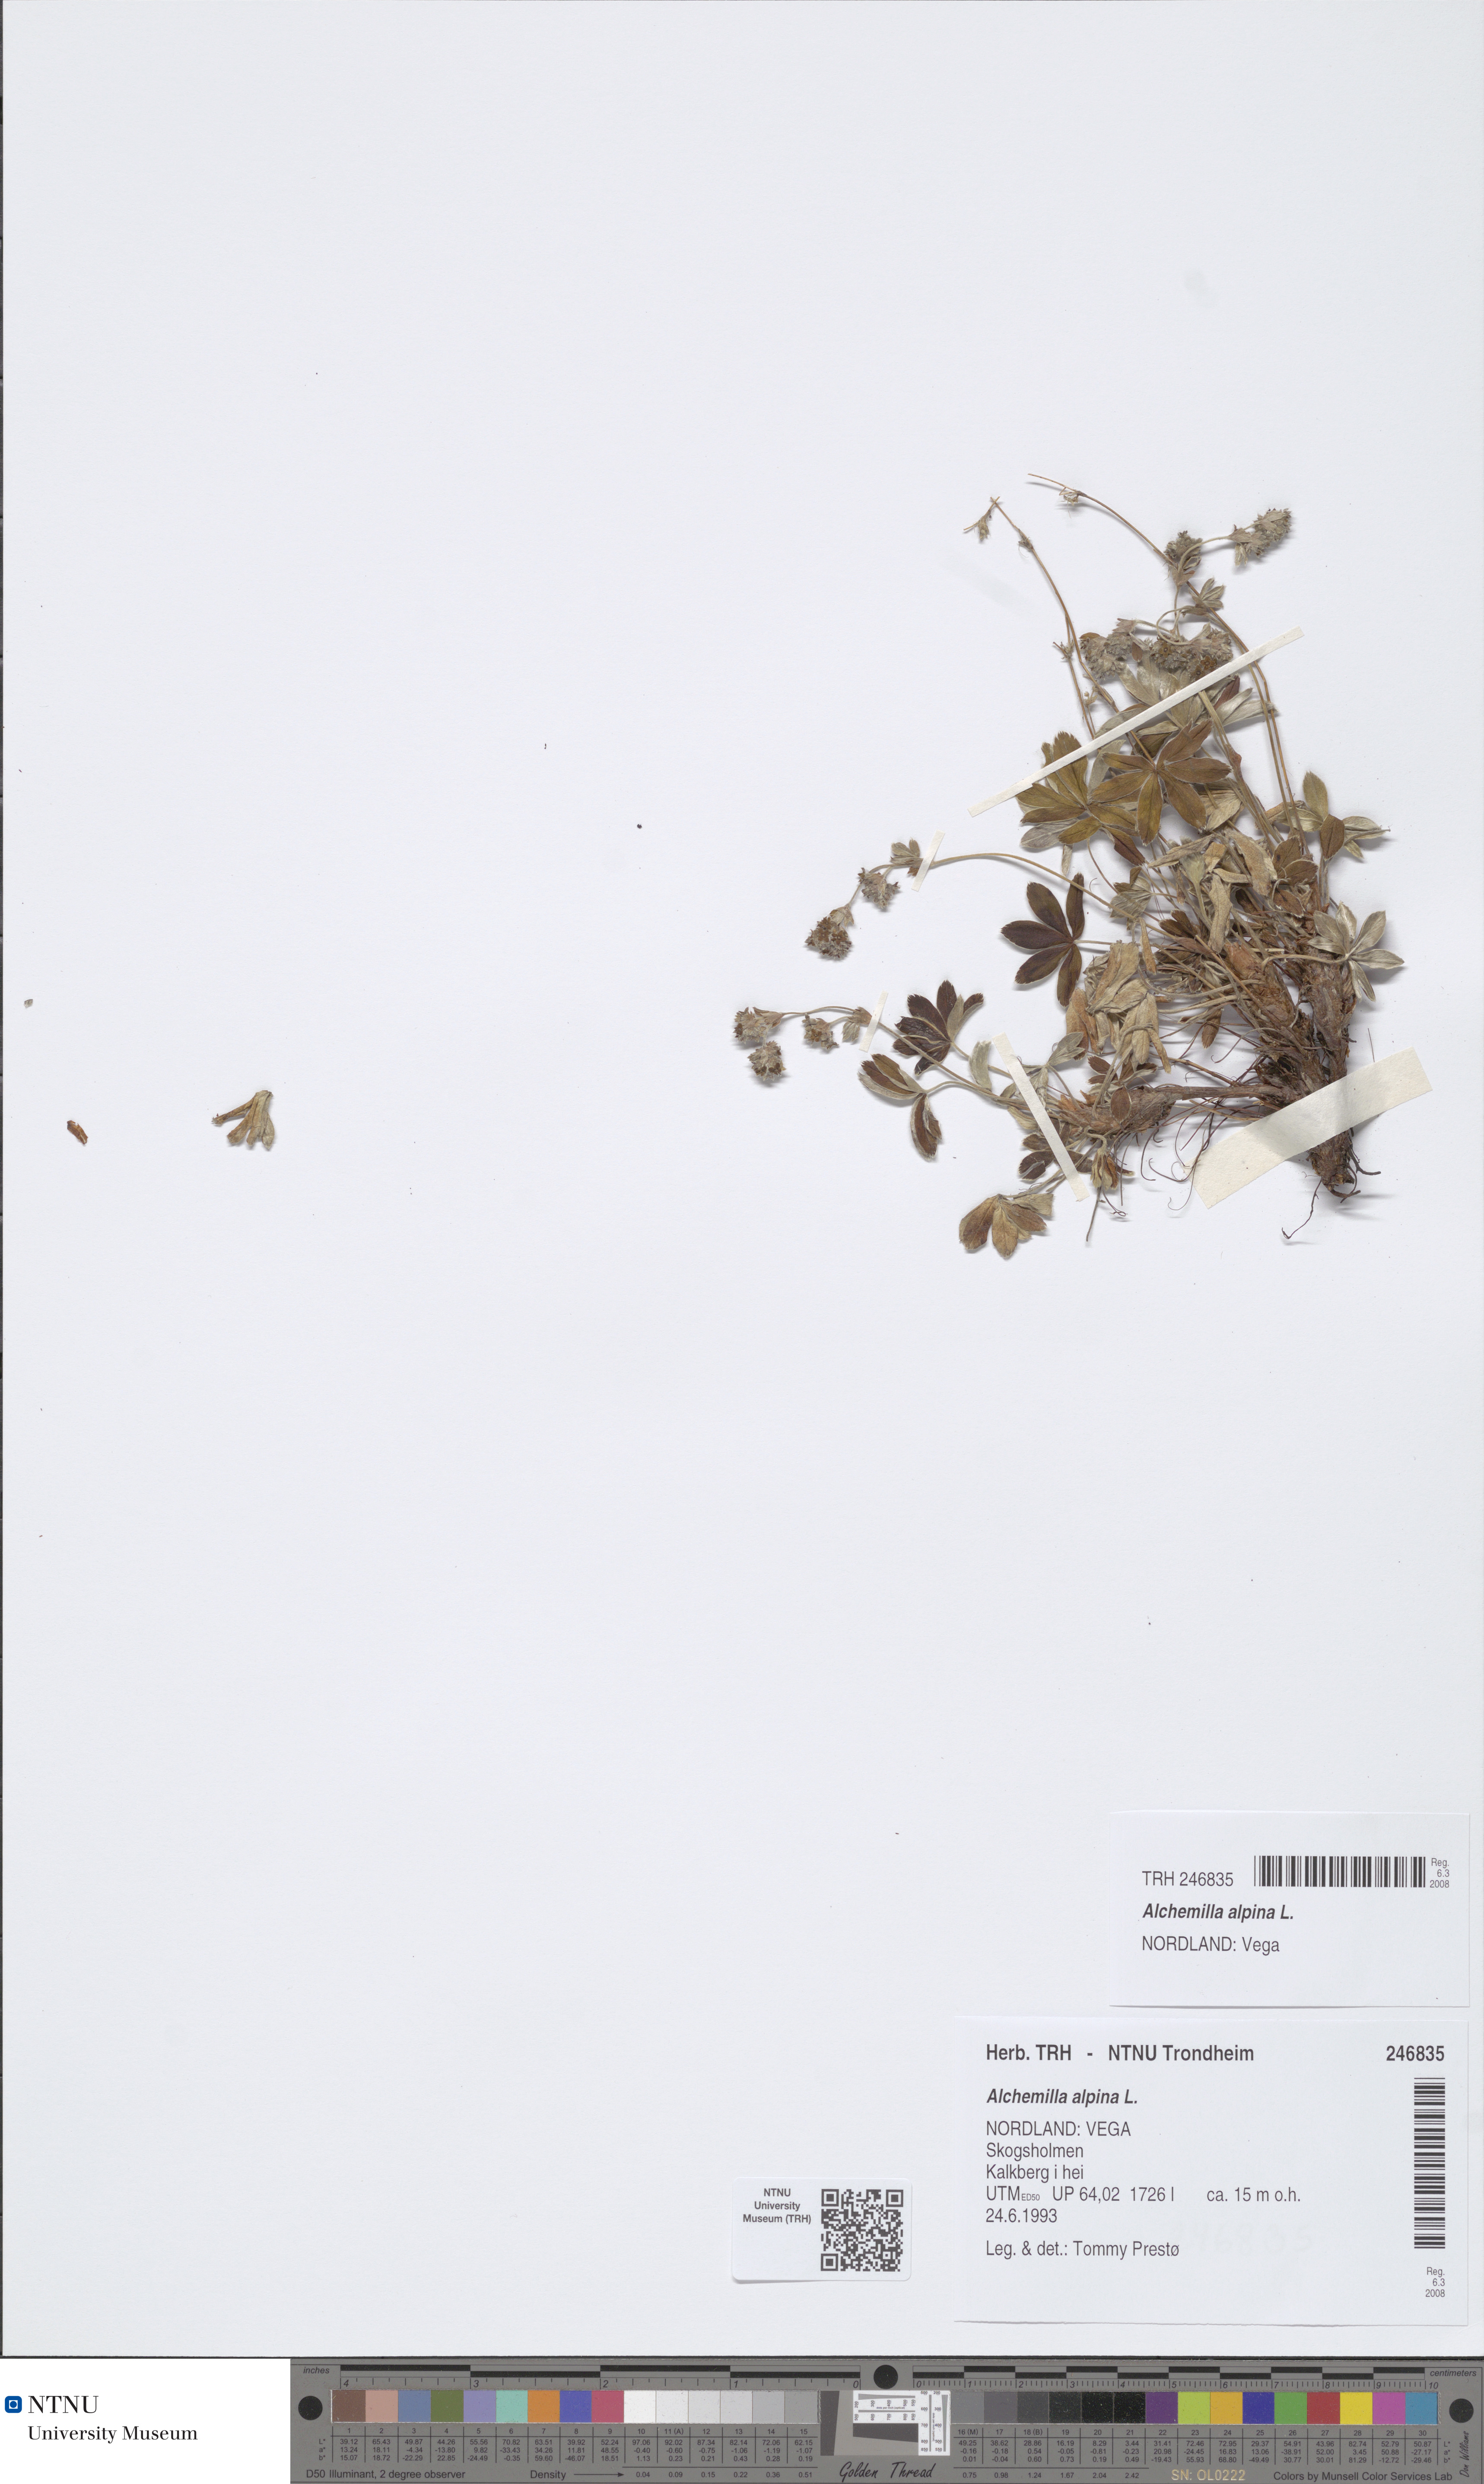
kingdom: Plantae
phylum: Tracheophyta
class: Magnoliopsida
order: Rosales
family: Rosaceae
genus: Alchemilla
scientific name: Alchemilla alpina
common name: Alpine lady's-mantle
